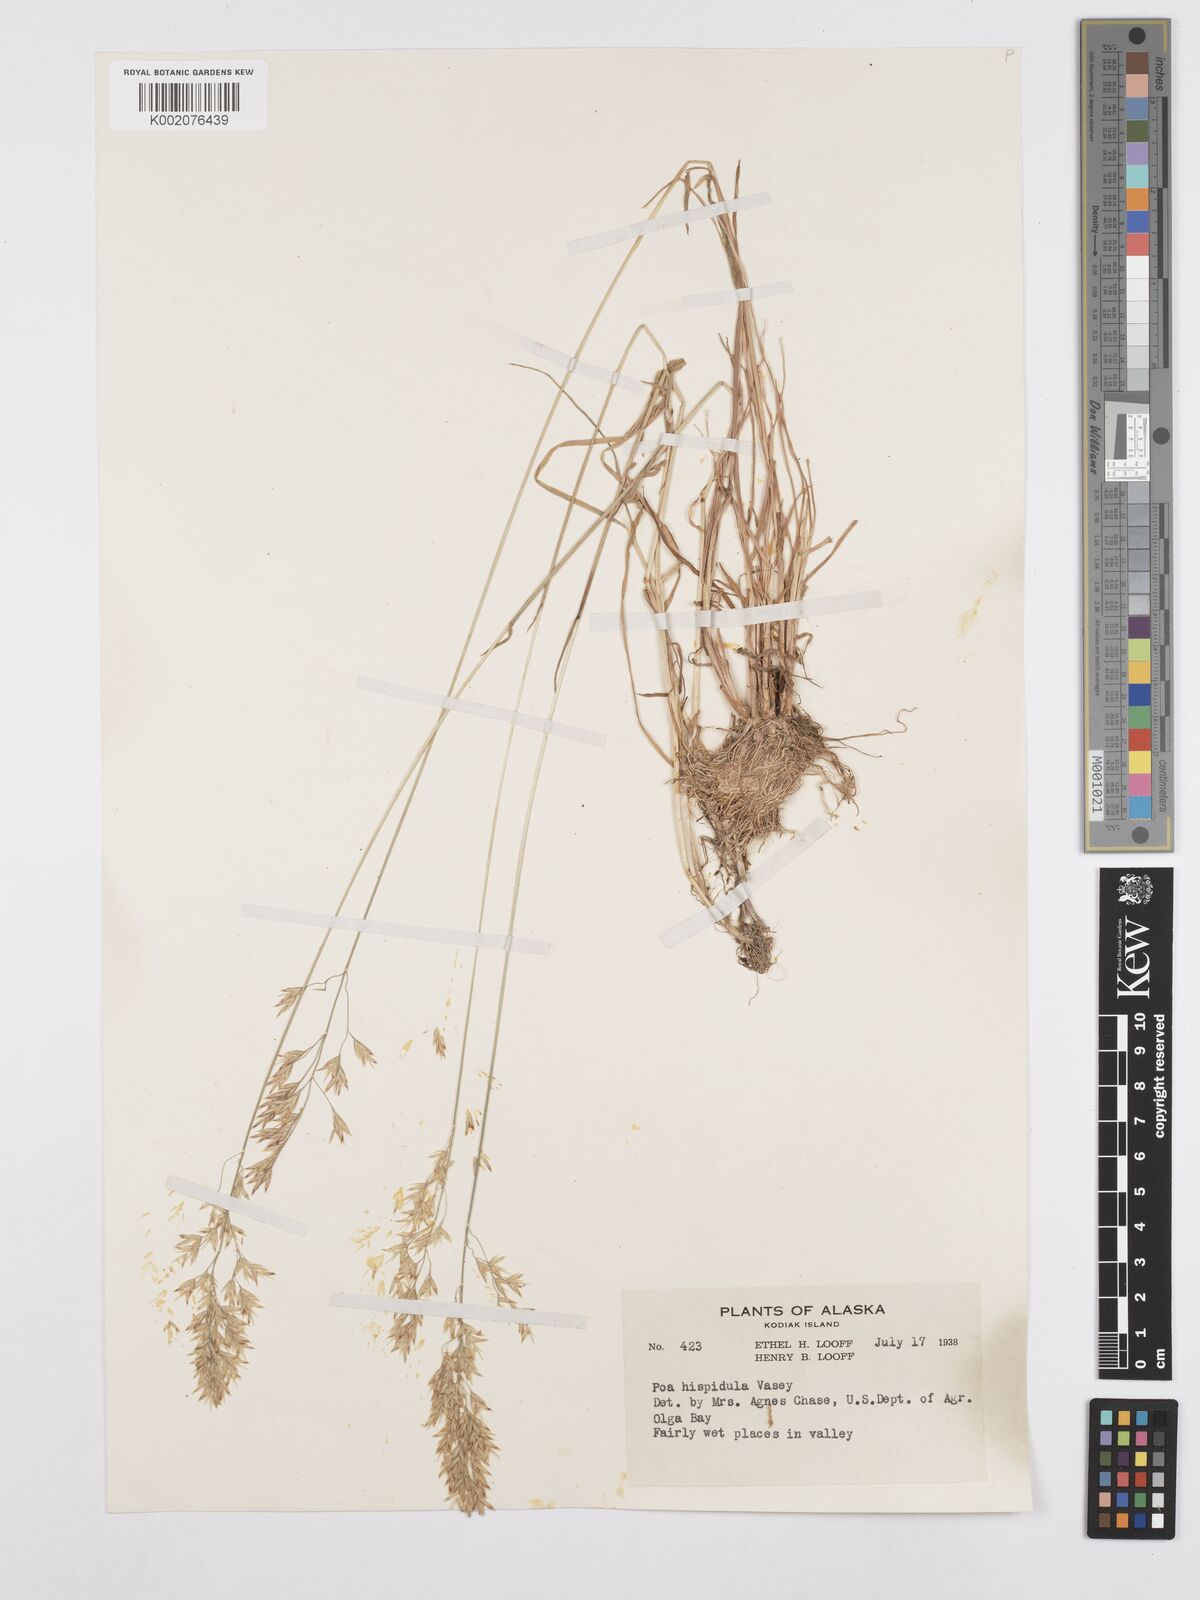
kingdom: Plantae
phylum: Tracheophyta
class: Liliopsida
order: Poales
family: Poaceae
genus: Poa
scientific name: Poa macrocalyx
